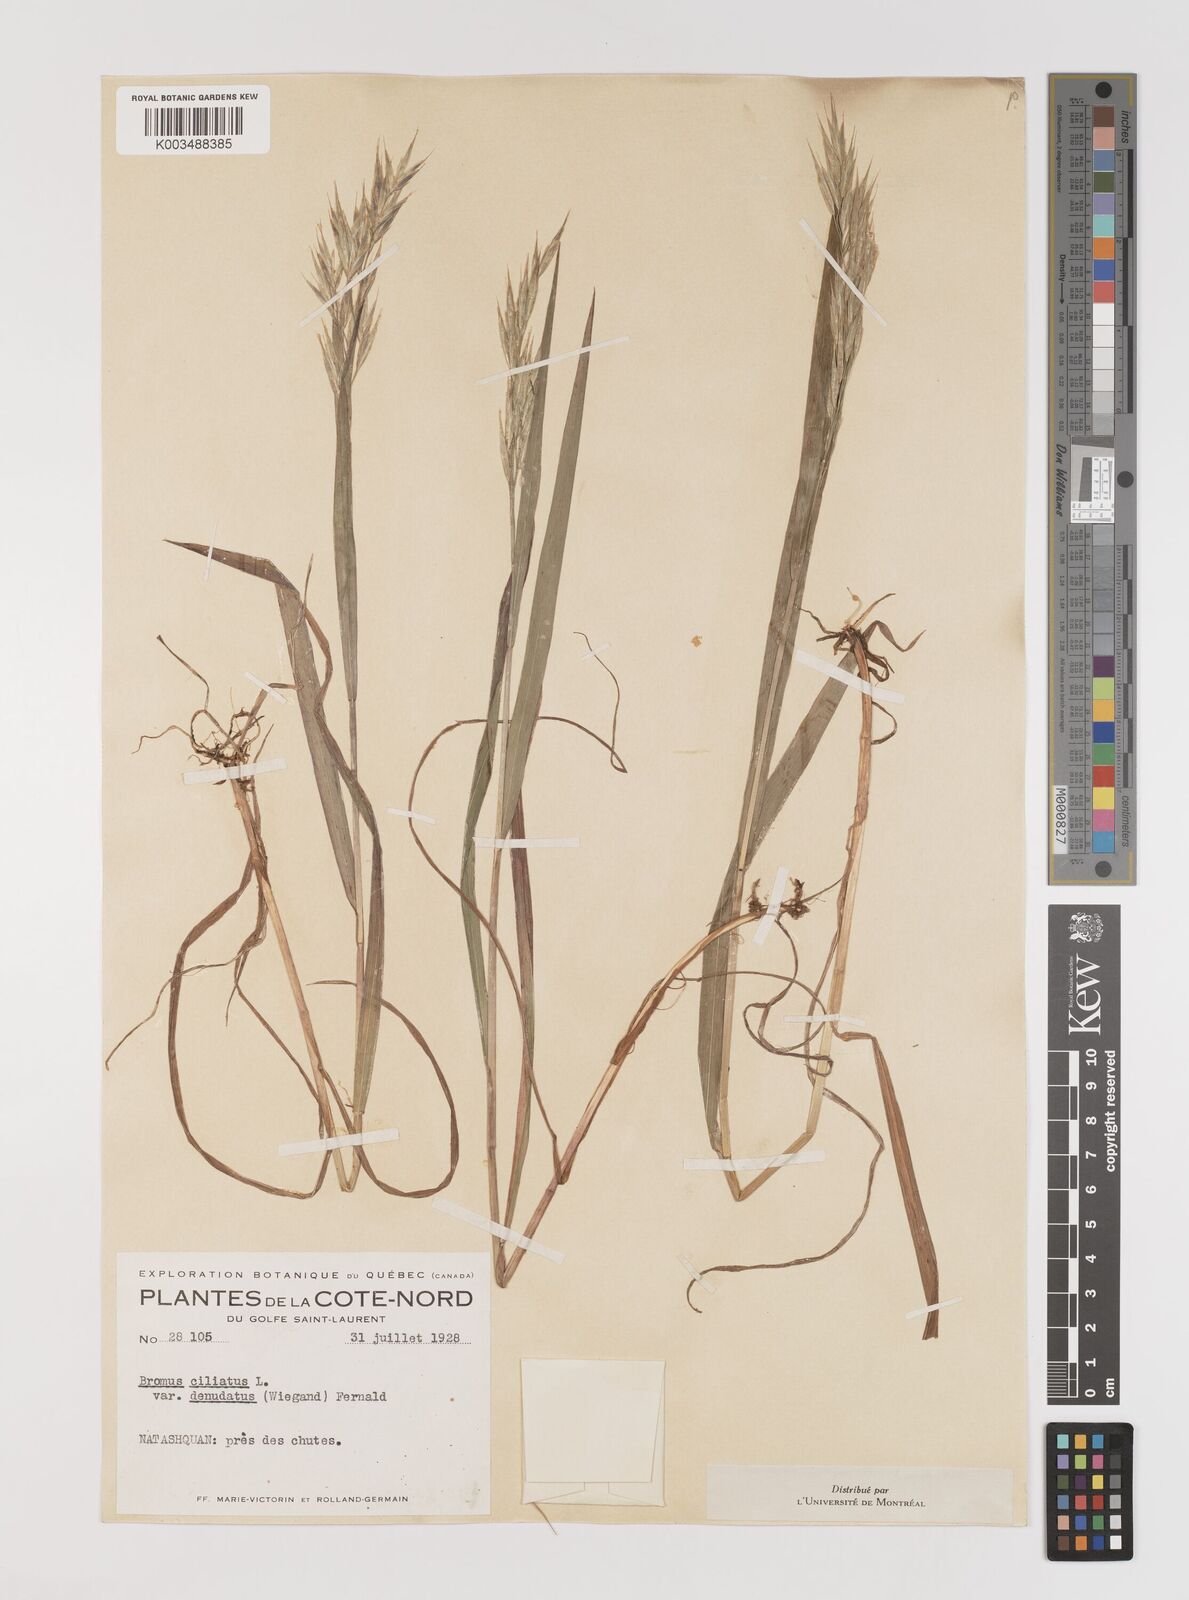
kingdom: Plantae
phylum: Tracheophyta
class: Liliopsida
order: Poales
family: Poaceae
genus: Bromus
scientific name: Bromus ciliatus
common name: Fringe brome
